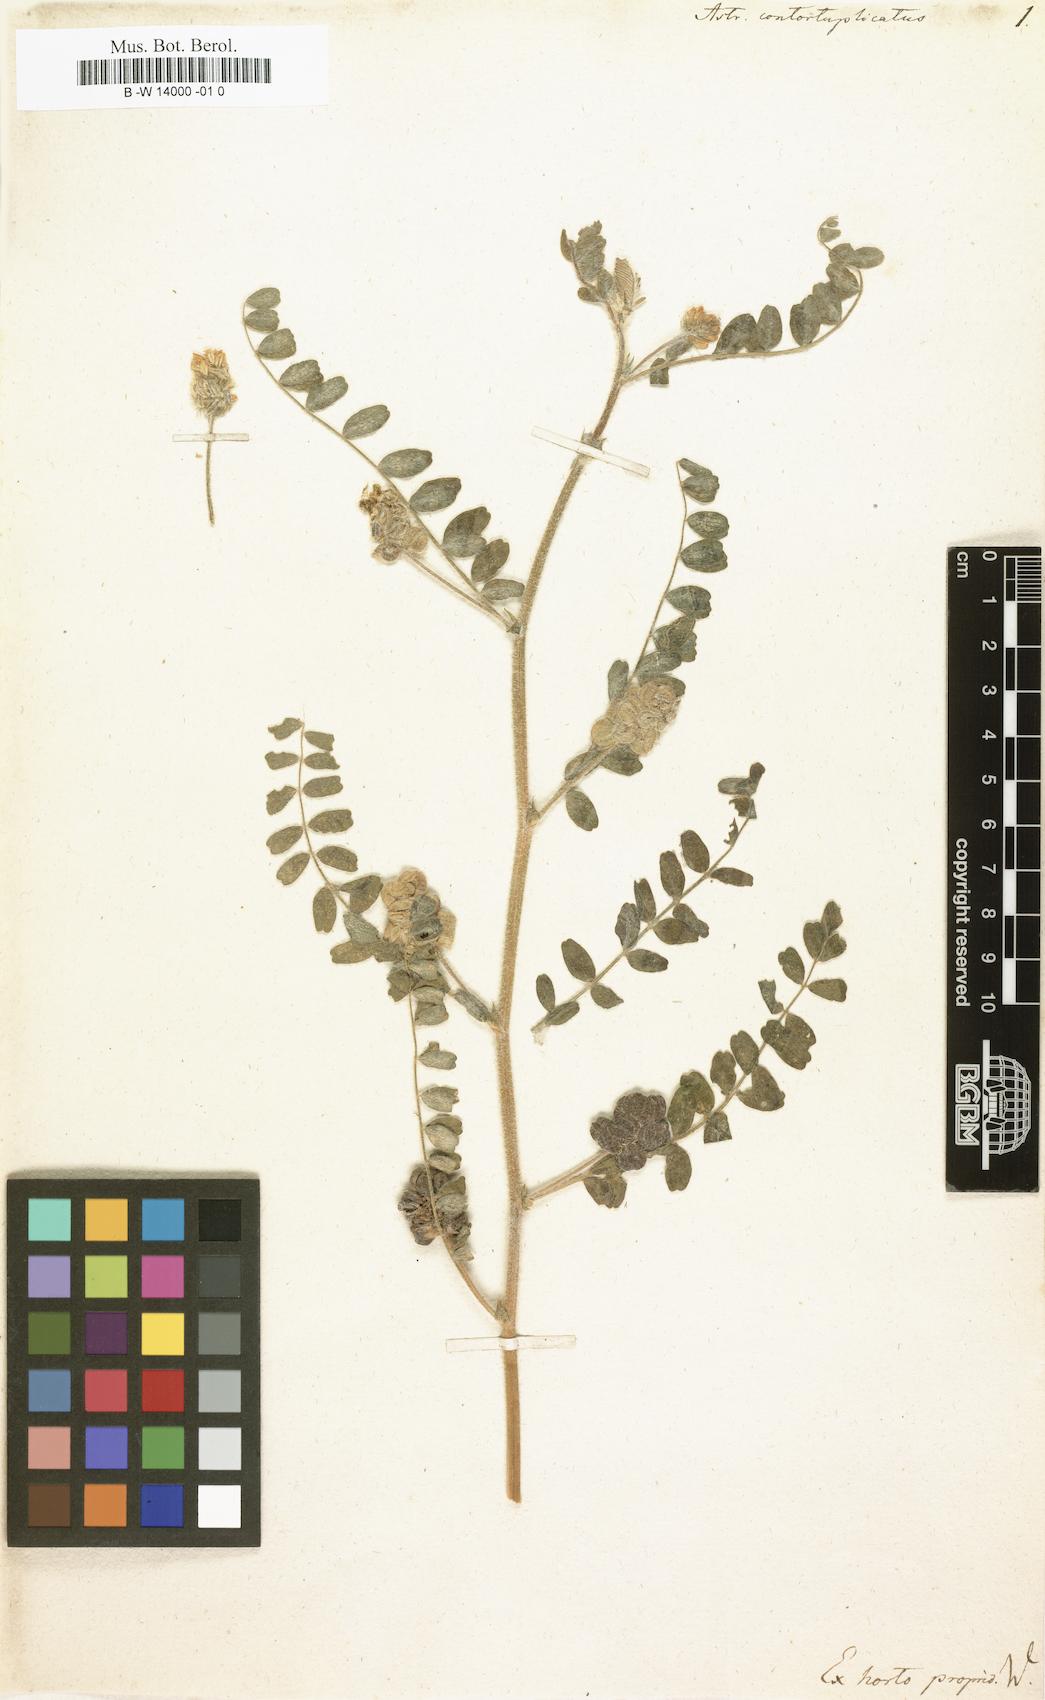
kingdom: Plantae
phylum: Tracheophyta
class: Magnoliopsida
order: Fabales
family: Fabaceae
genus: Astragalus
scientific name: Astragalus contortuplicatus
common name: Hungarian milkvetch
